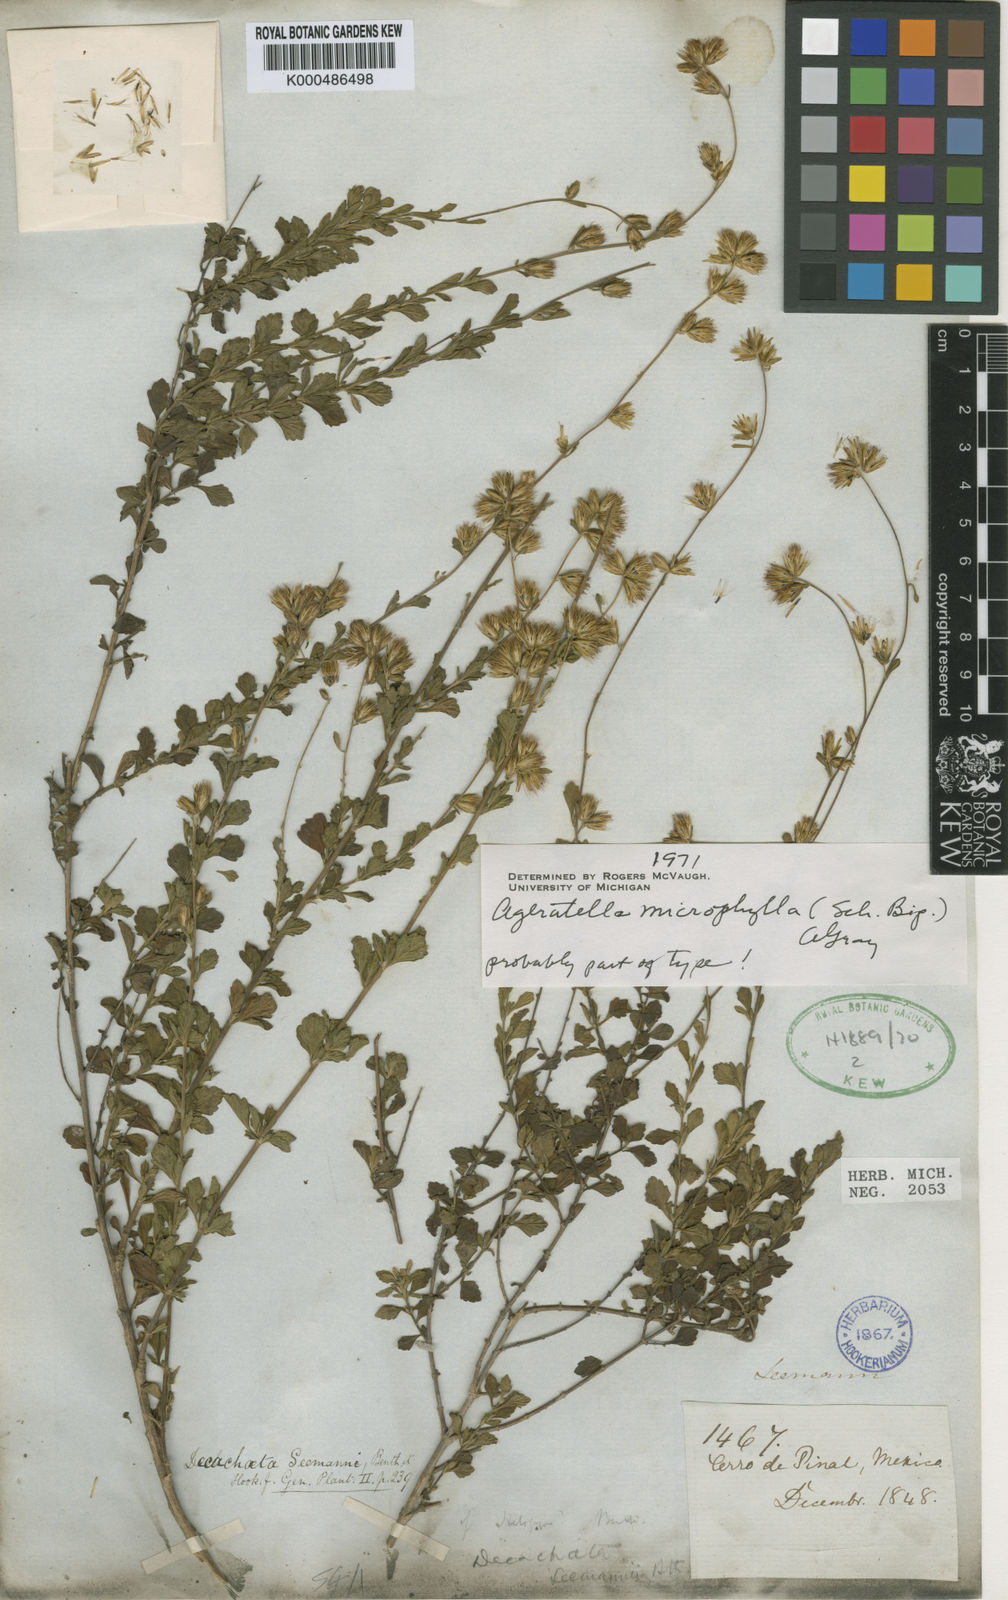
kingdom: Plantae
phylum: Tracheophyta
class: Magnoliopsida
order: Asterales
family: Asteraceae
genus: Ageratella
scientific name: Ageratella
